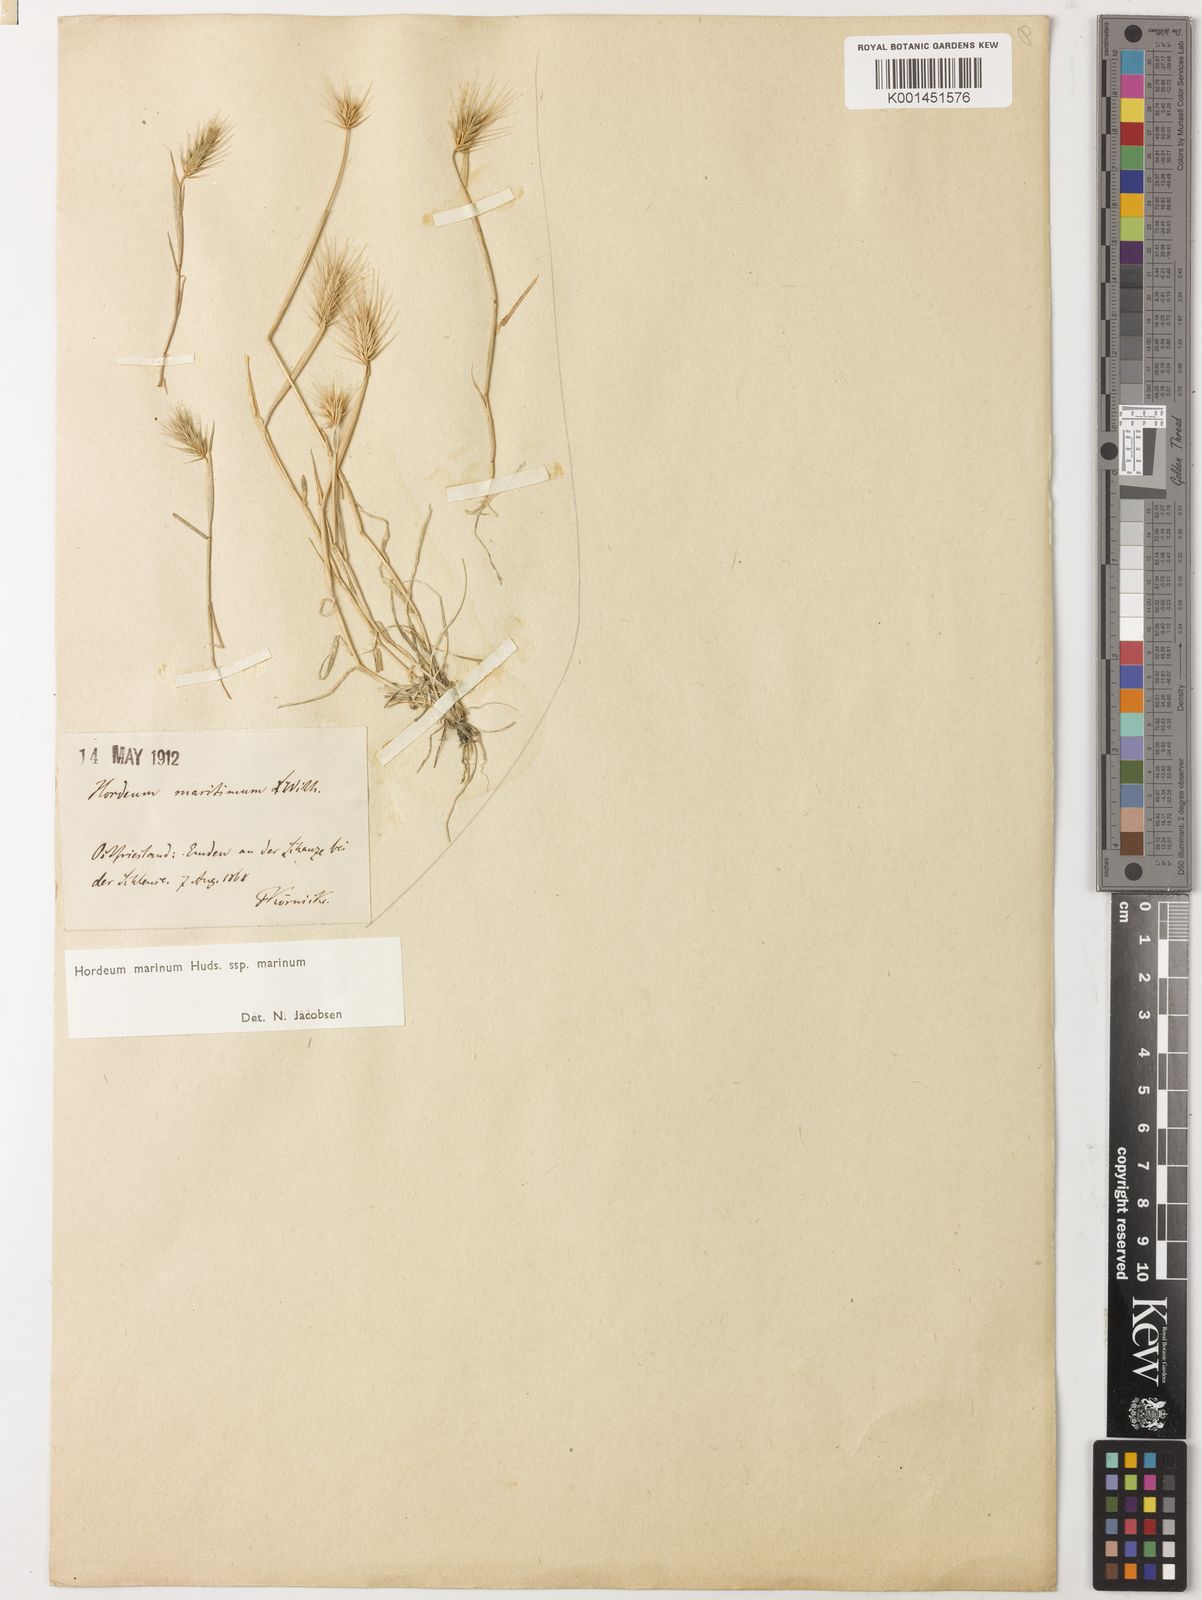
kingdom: Plantae
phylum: Tracheophyta
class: Liliopsida
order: Poales
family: Poaceae
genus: Hordeum
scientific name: Hordeum marinum
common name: Sea barley
